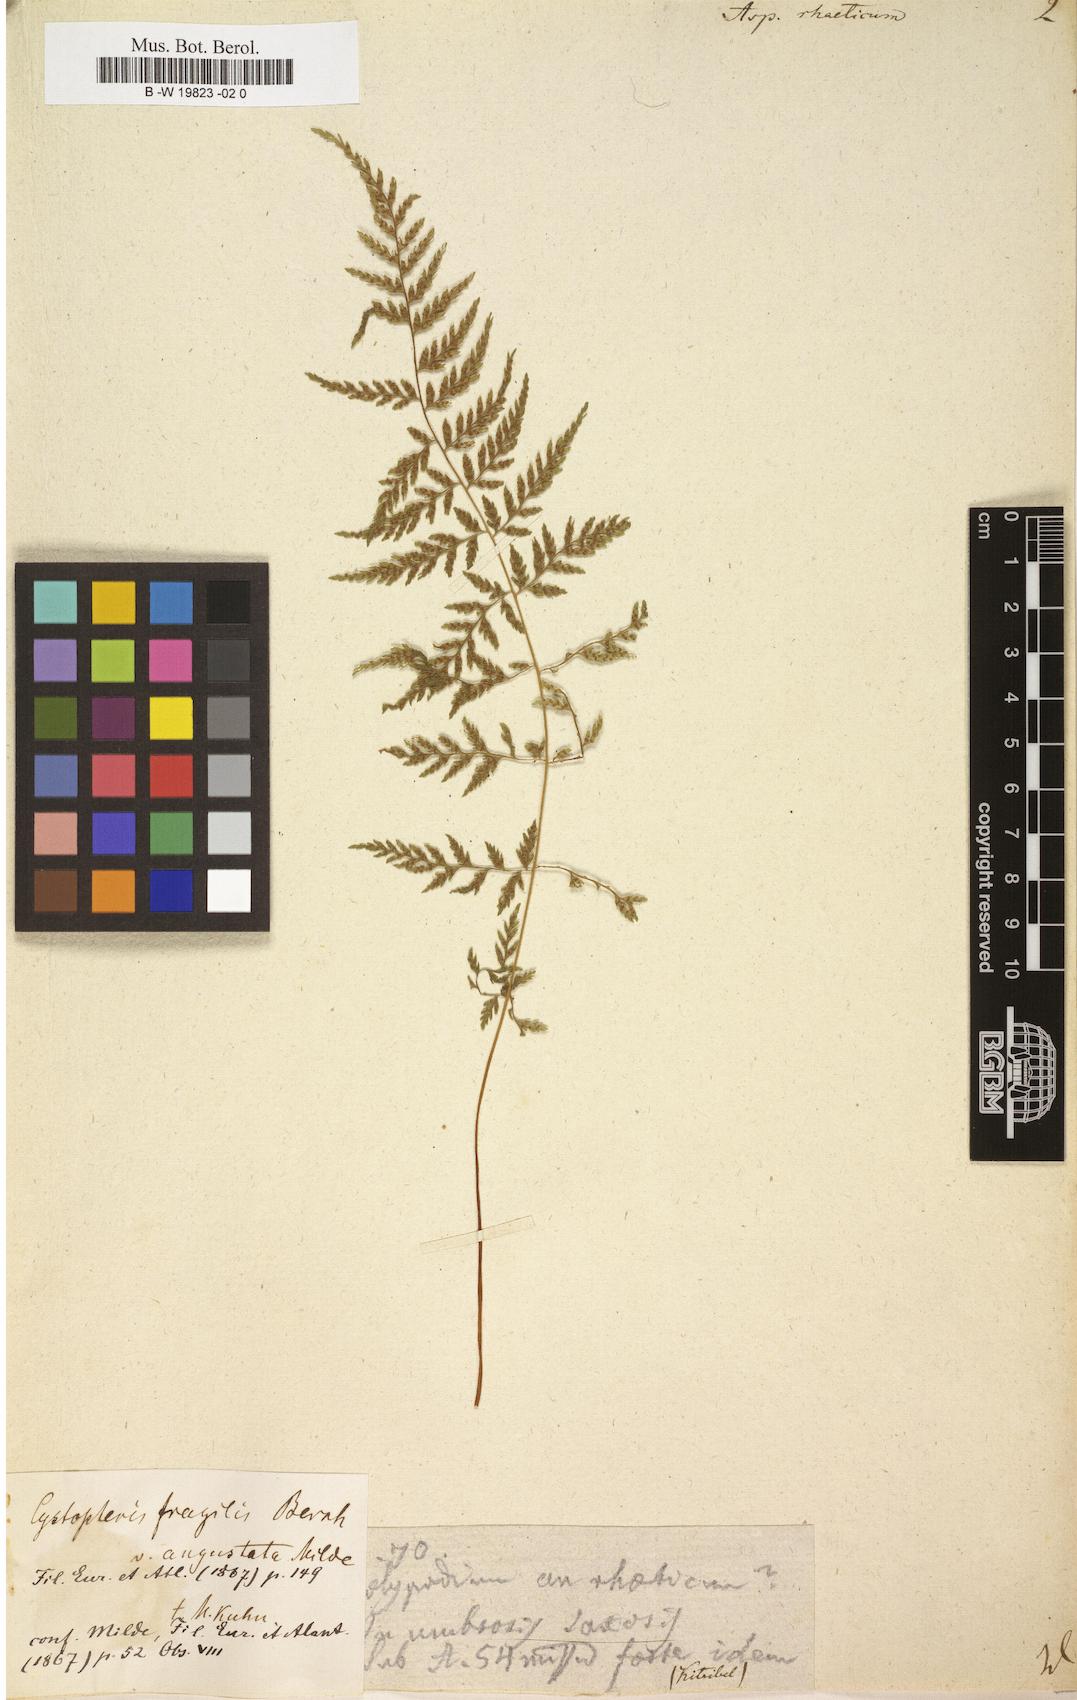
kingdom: Plantae
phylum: Tracheophyta
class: Polypodiopsida
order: Polypodiales
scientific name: Polypodiales
